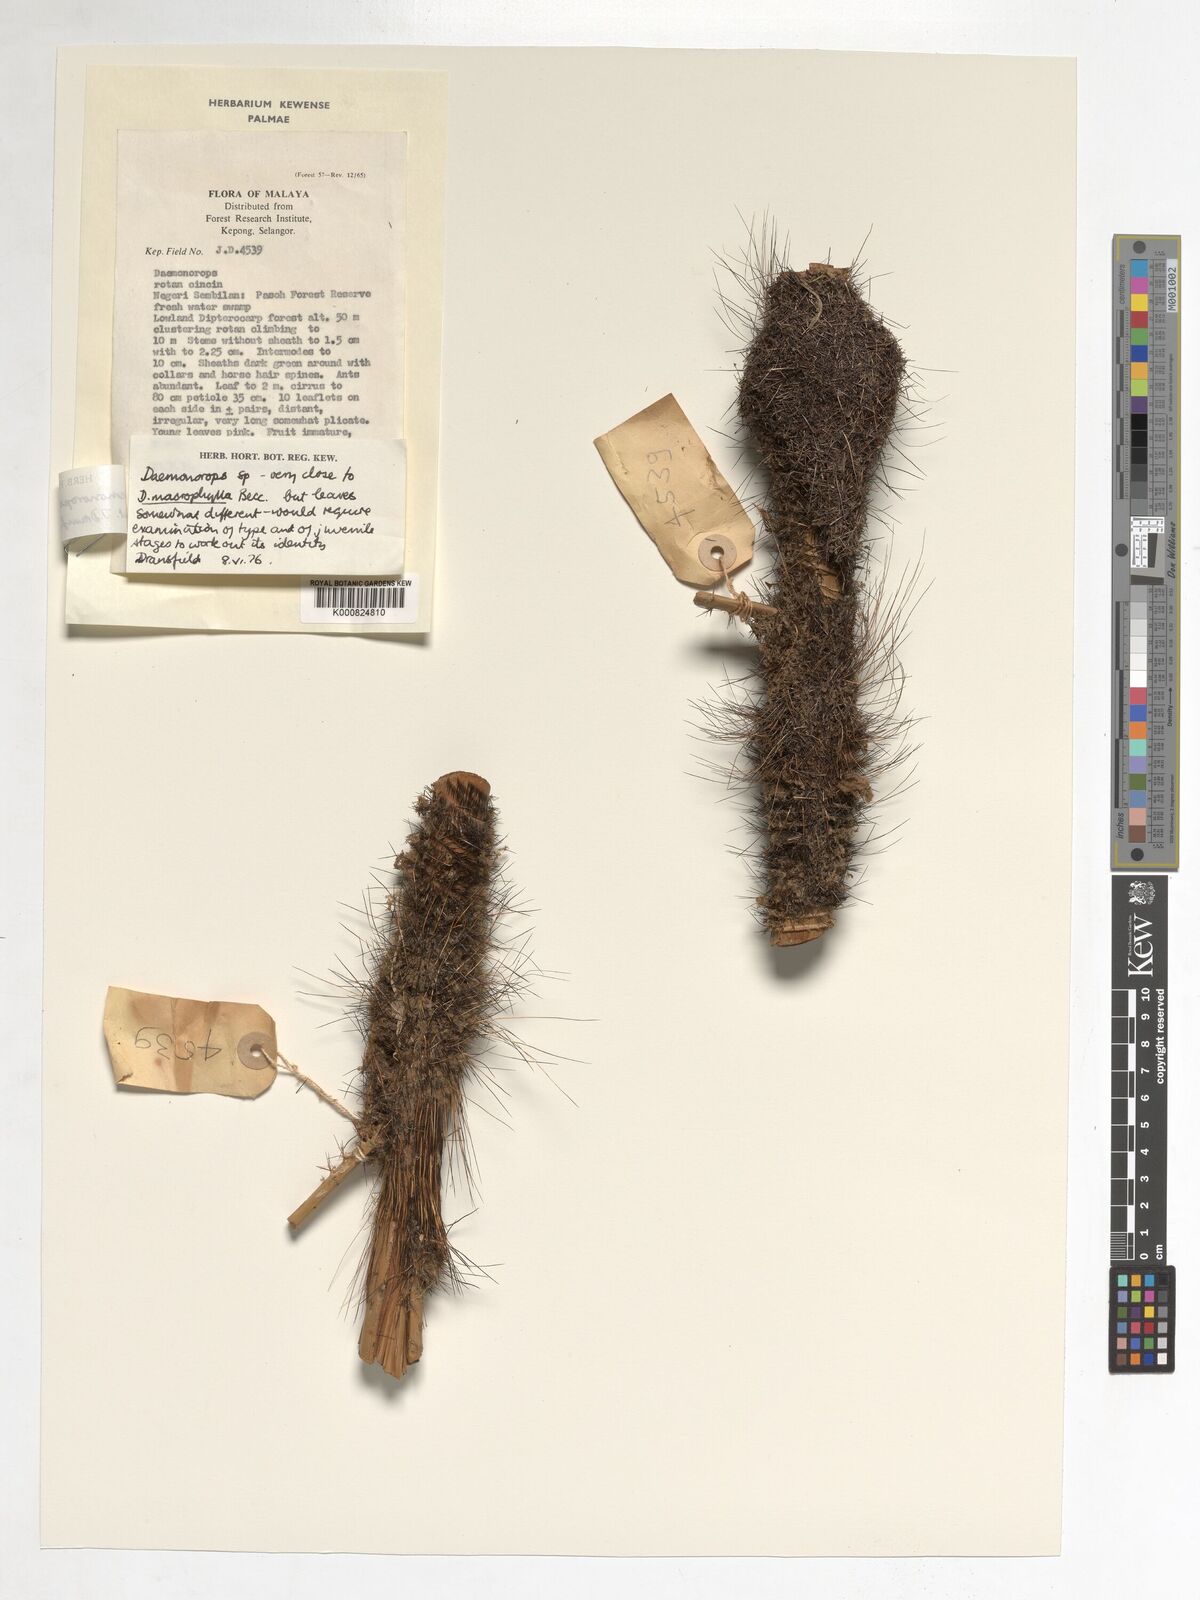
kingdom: Plantae
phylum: Tracheophyta
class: Liliopsida
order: Arecales
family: Arecaceae
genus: Calamus
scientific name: Calamus crinitus
